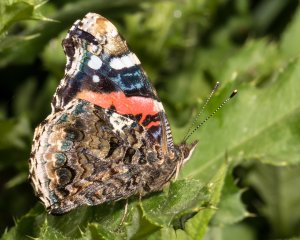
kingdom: Animalia
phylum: Arthropoda
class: Insecta
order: Lepidoptera
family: Nymphalidae
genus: Vanessa
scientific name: Vanessa atalanta
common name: Red Admiral
